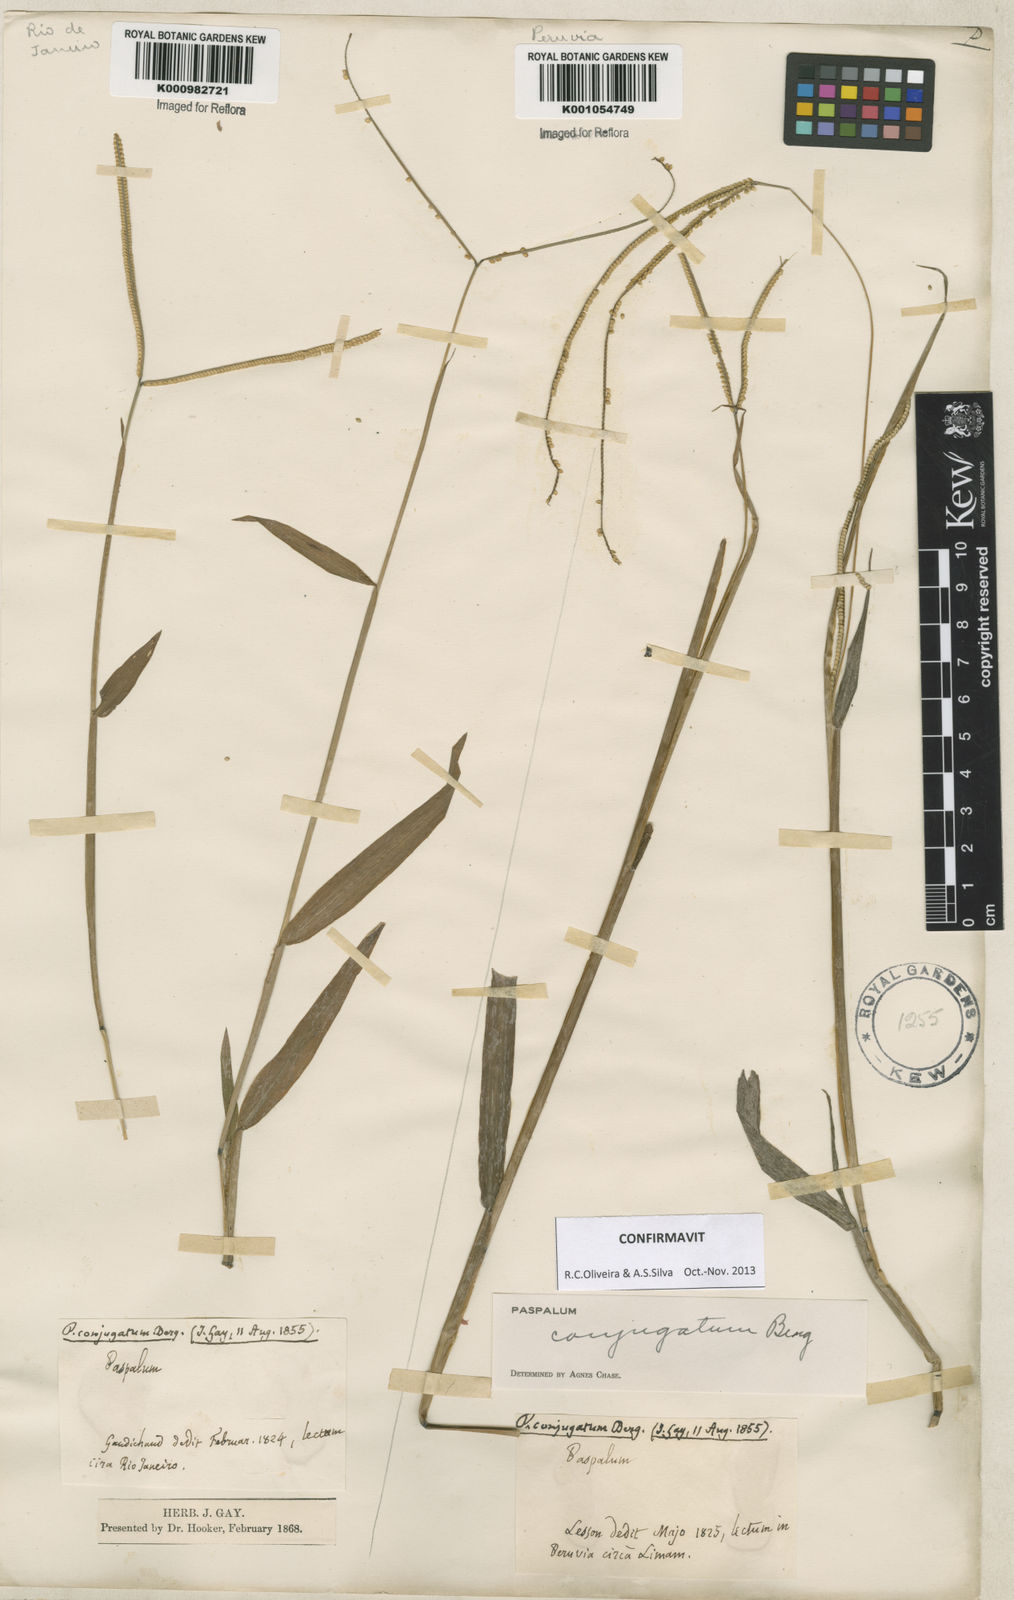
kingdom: Plantae
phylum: Tracheophyta
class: Liliopsida
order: Poales
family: Poaceae
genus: Paspalum
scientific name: Paspalum conjugatum
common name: Hilograss
